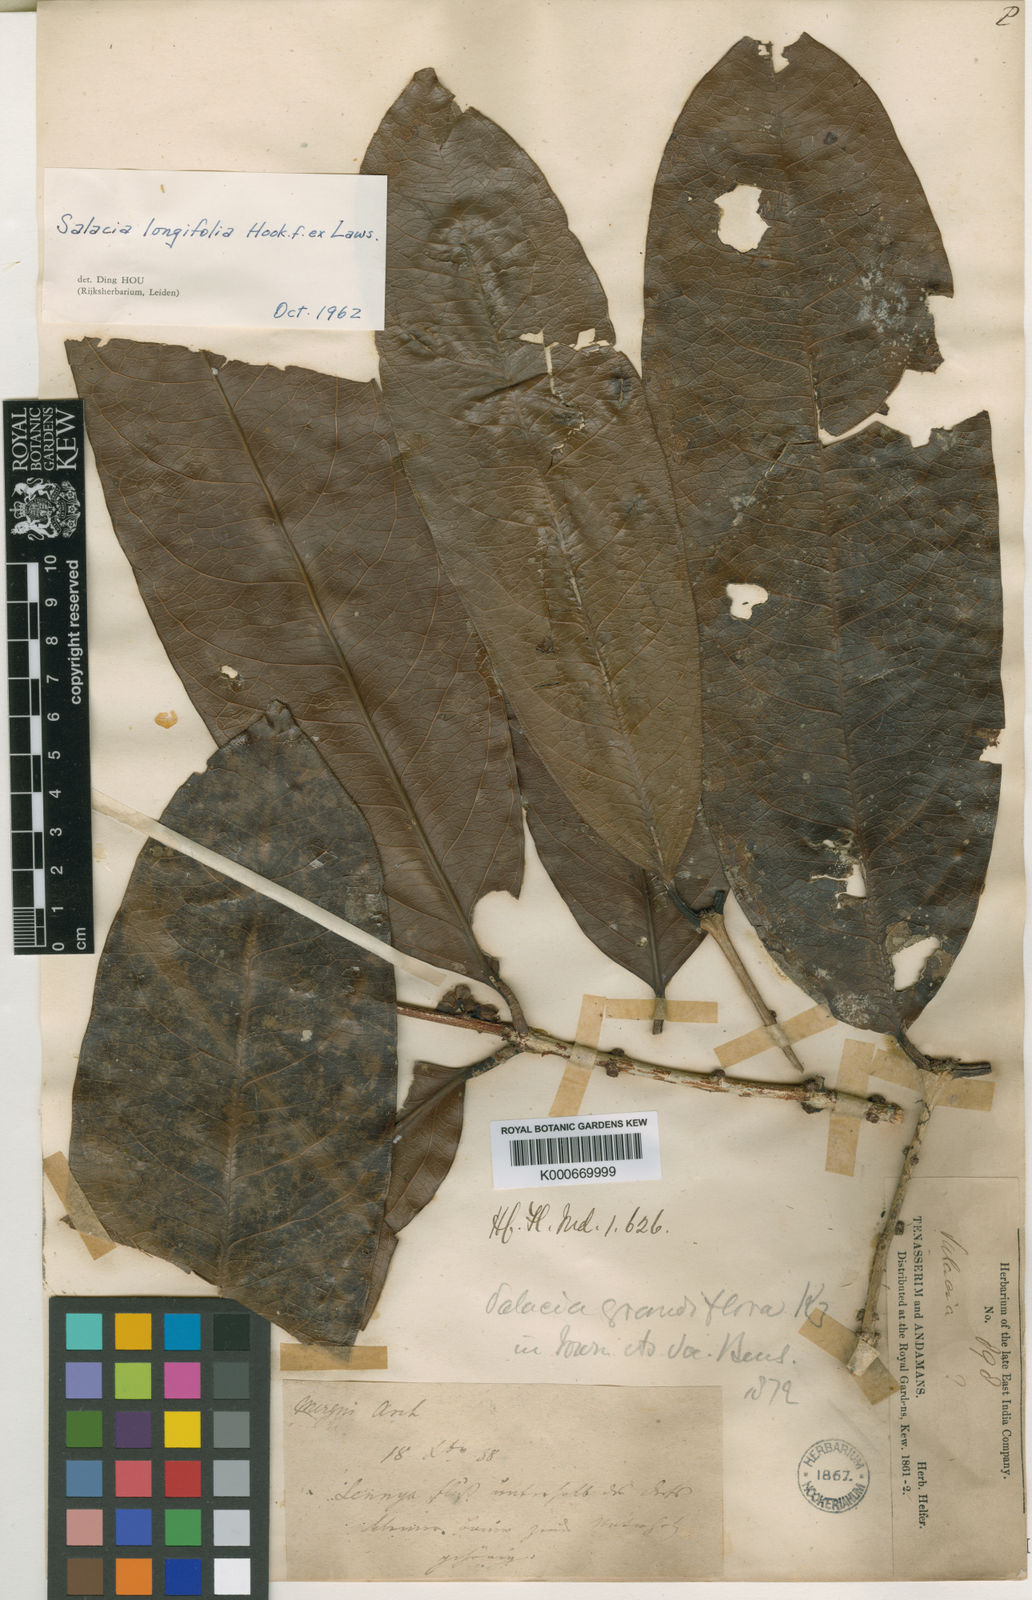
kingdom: Plantae
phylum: Tracheophyta
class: Magnoliopsida
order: Celastrales
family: Celastraceae
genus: Salacia
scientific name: Salacia grandiflora
